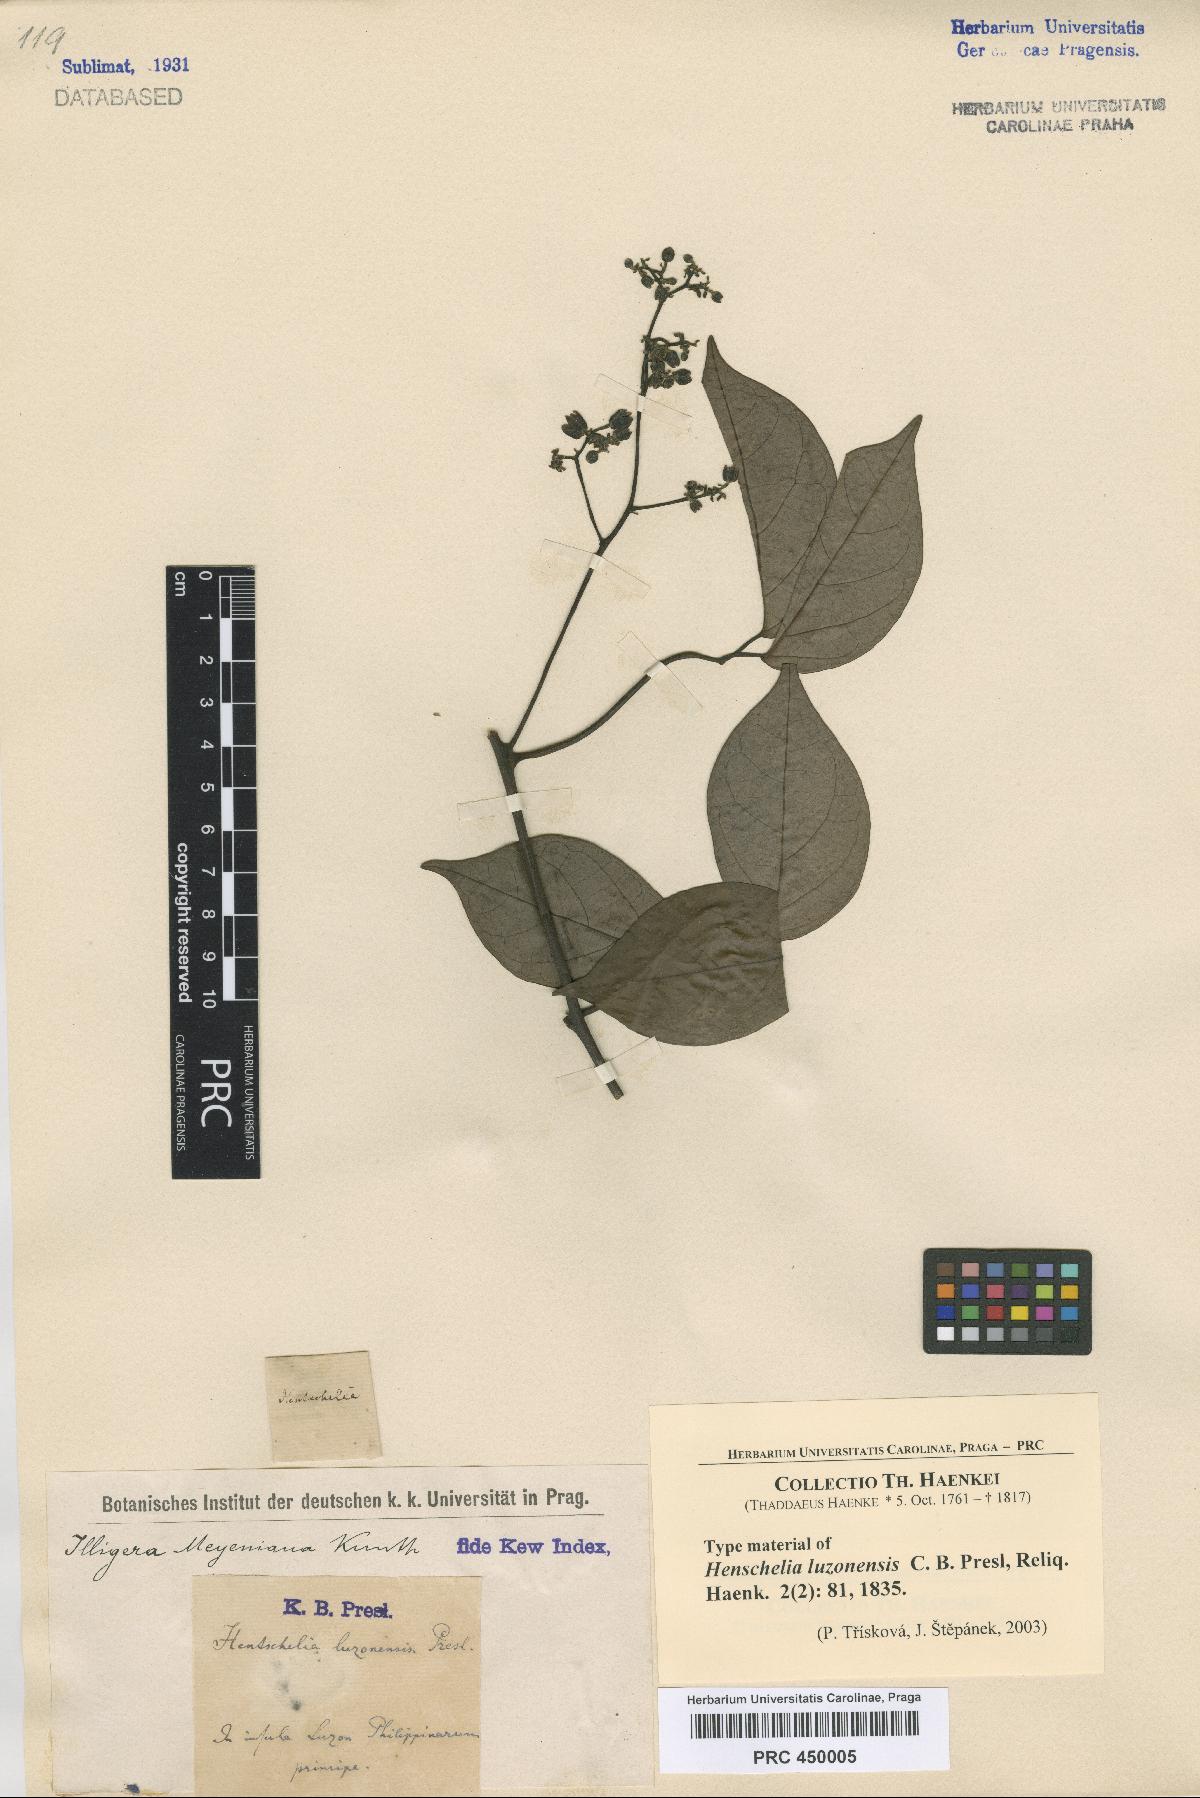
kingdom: Plantae
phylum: Tracheophyta
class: Magnoliopsida
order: Laurales
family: Hernandiaceae
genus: Illigera
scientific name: Illigera luzonensis
